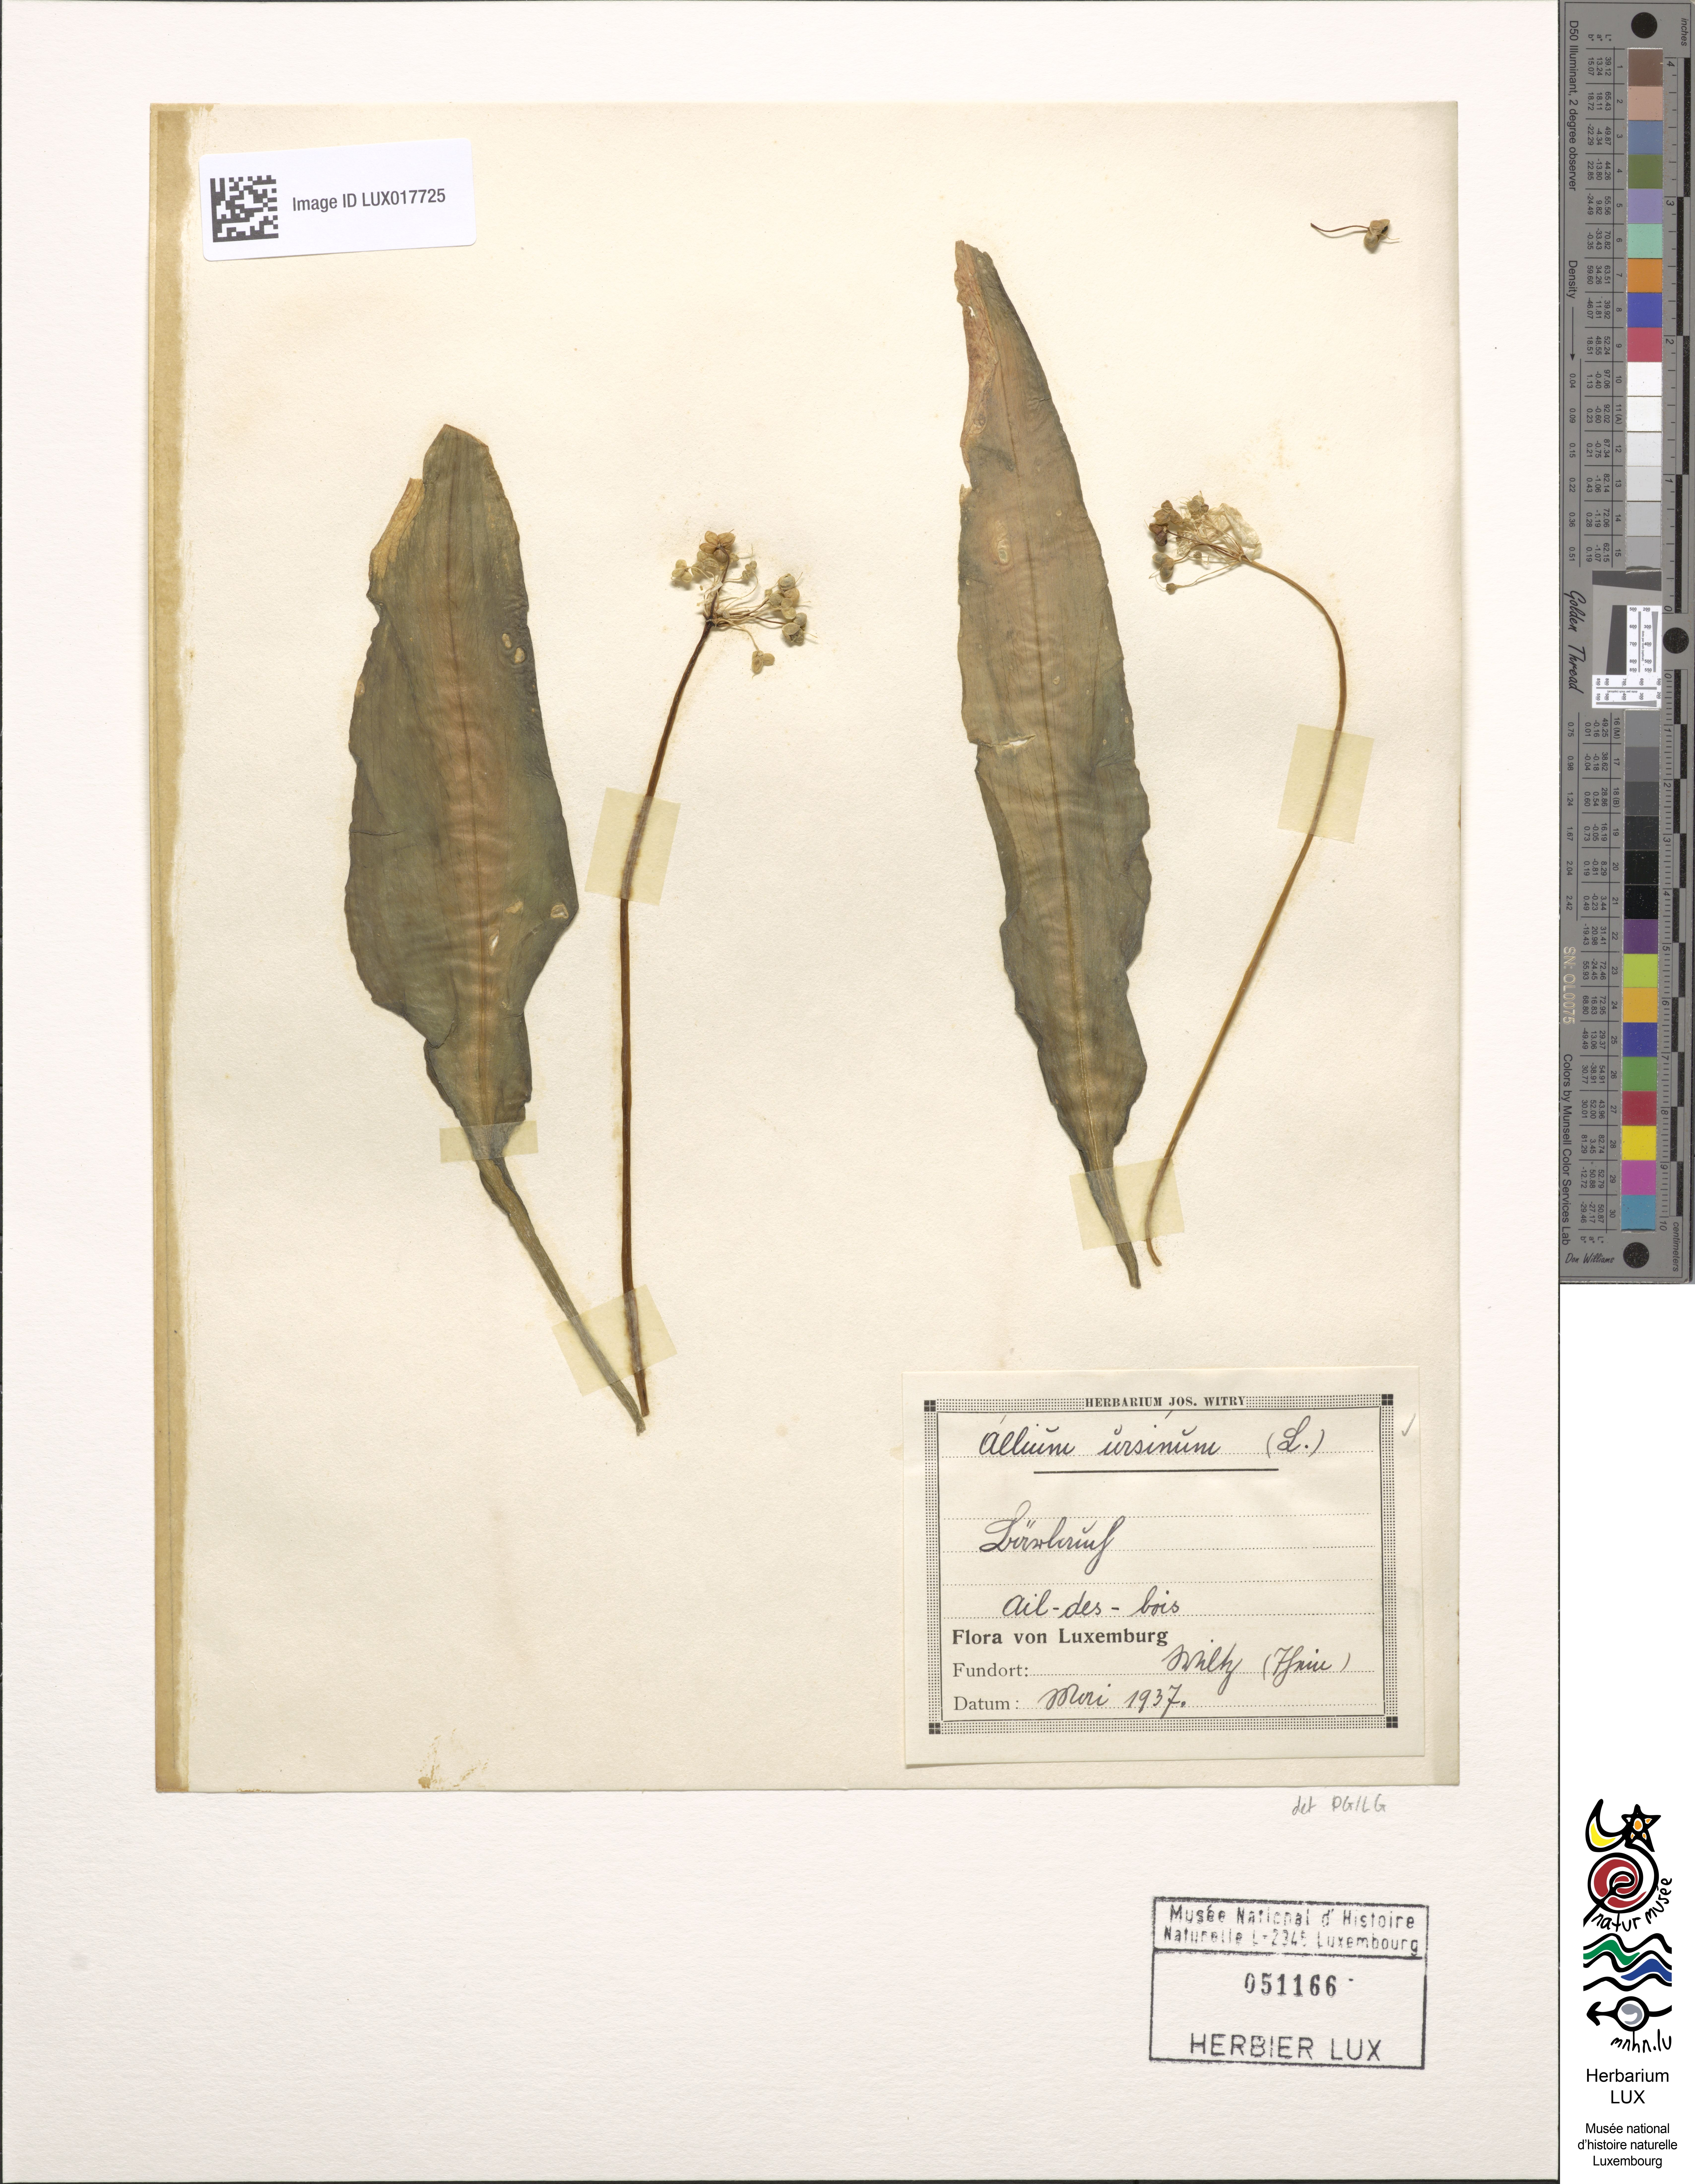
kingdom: Plantae
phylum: Tracheophyta
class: Liliopsida
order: Asparagales
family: Amaryllidaceae
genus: Allium
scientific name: Allium ursinum
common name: Ramsons
